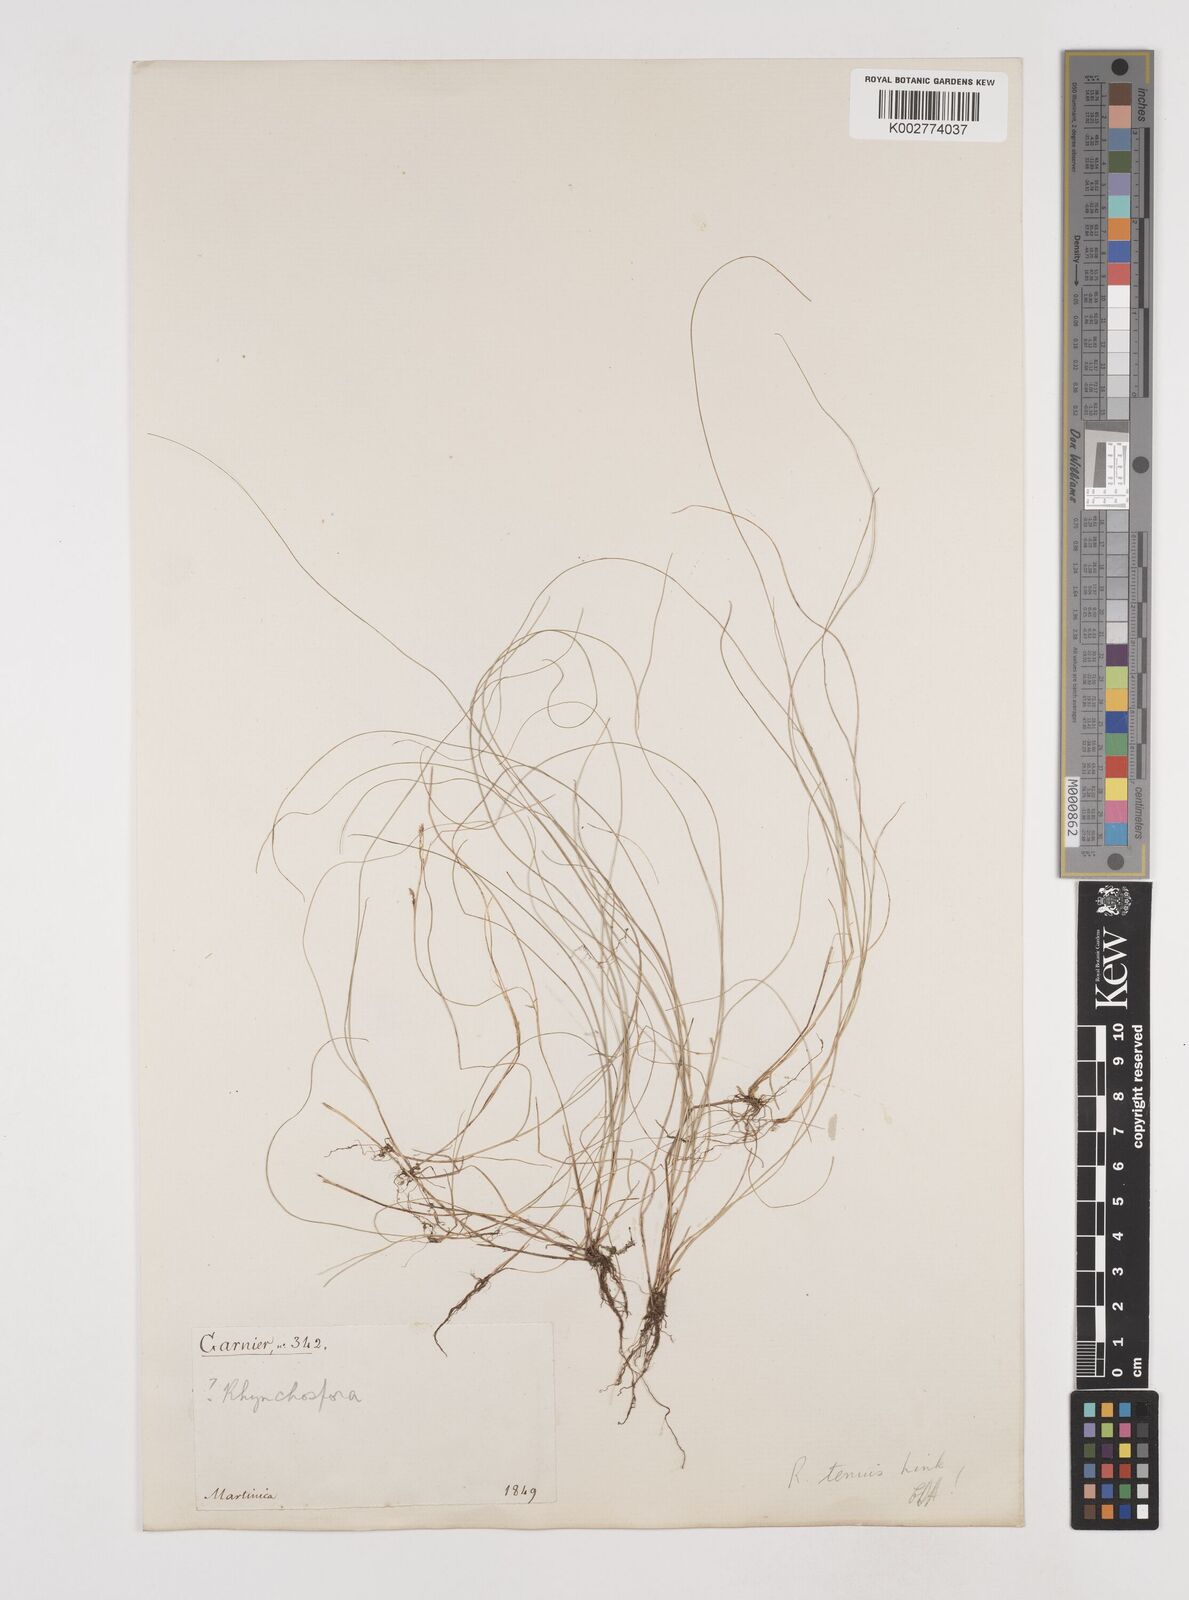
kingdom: Plantae
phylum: Tracheophyta
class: Liliopsida
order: Poales
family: Cyperaceae
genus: Rhynchospora
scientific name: Rhynchospora
